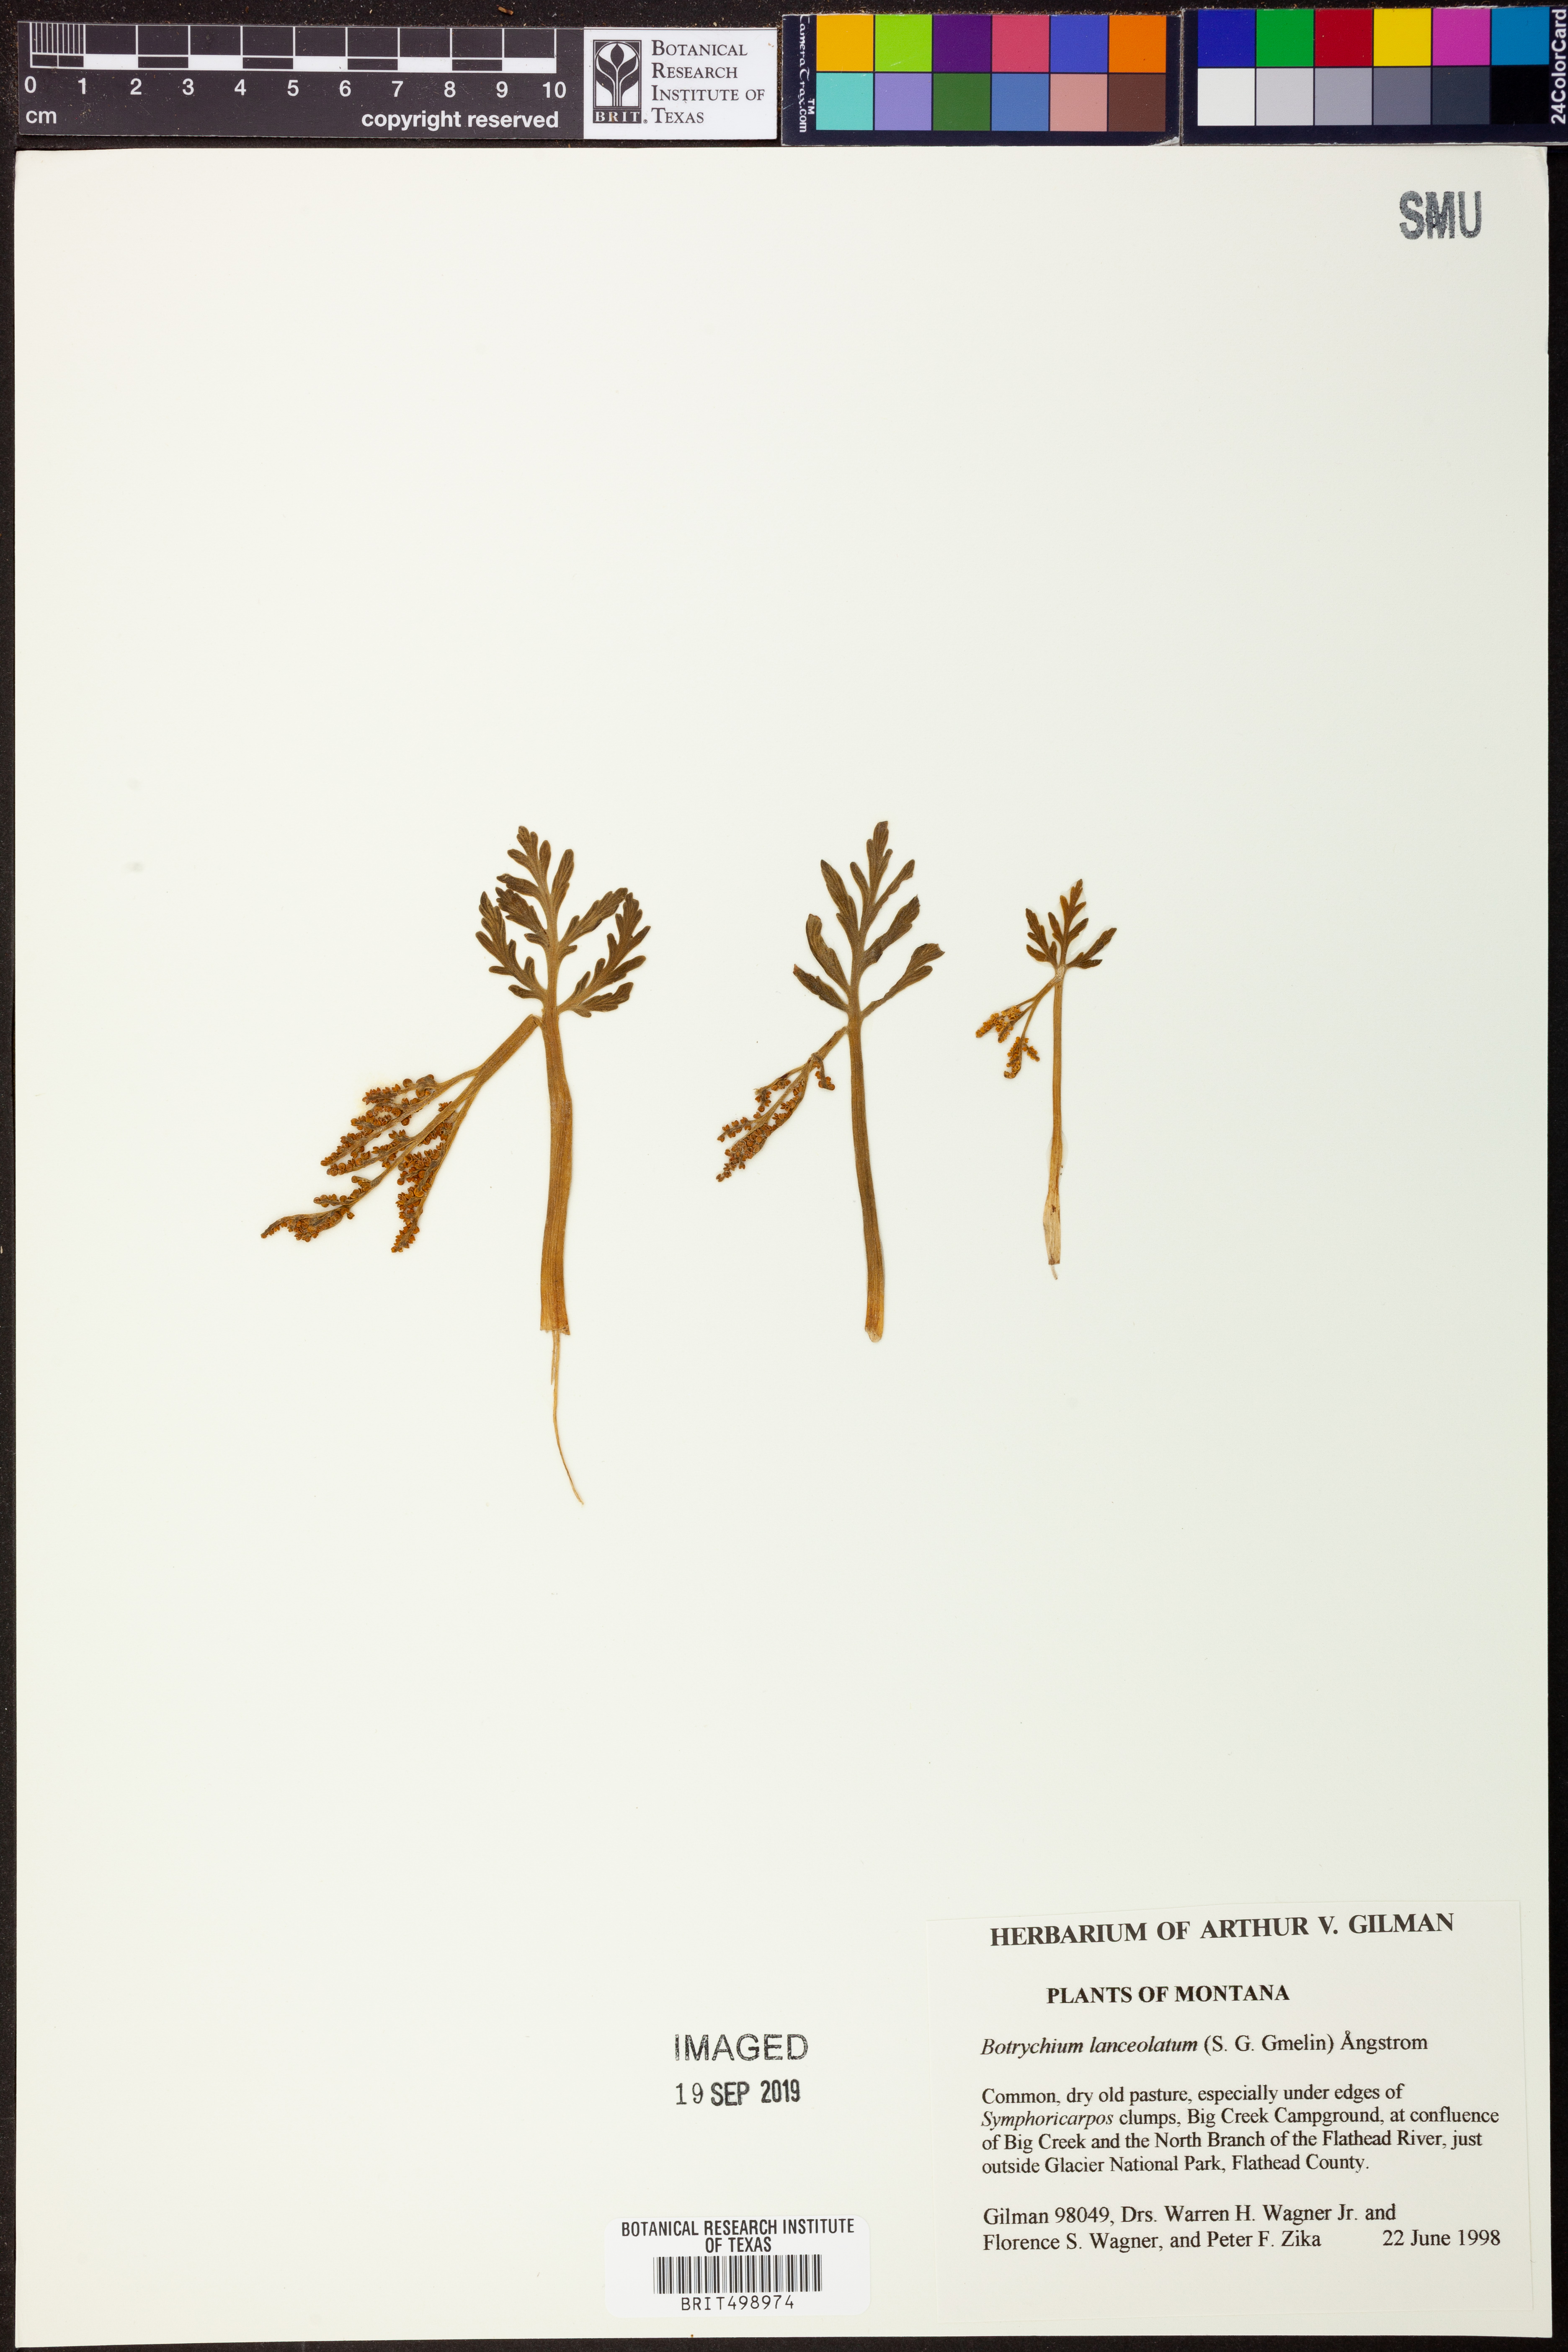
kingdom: Plantae
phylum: Tracheophyta
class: Polypodiopsida
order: Ophioglossales
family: Ophioglossaceae
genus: Botrychium
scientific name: Botrychium lanceolatum
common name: Lance-leaved moonwort
